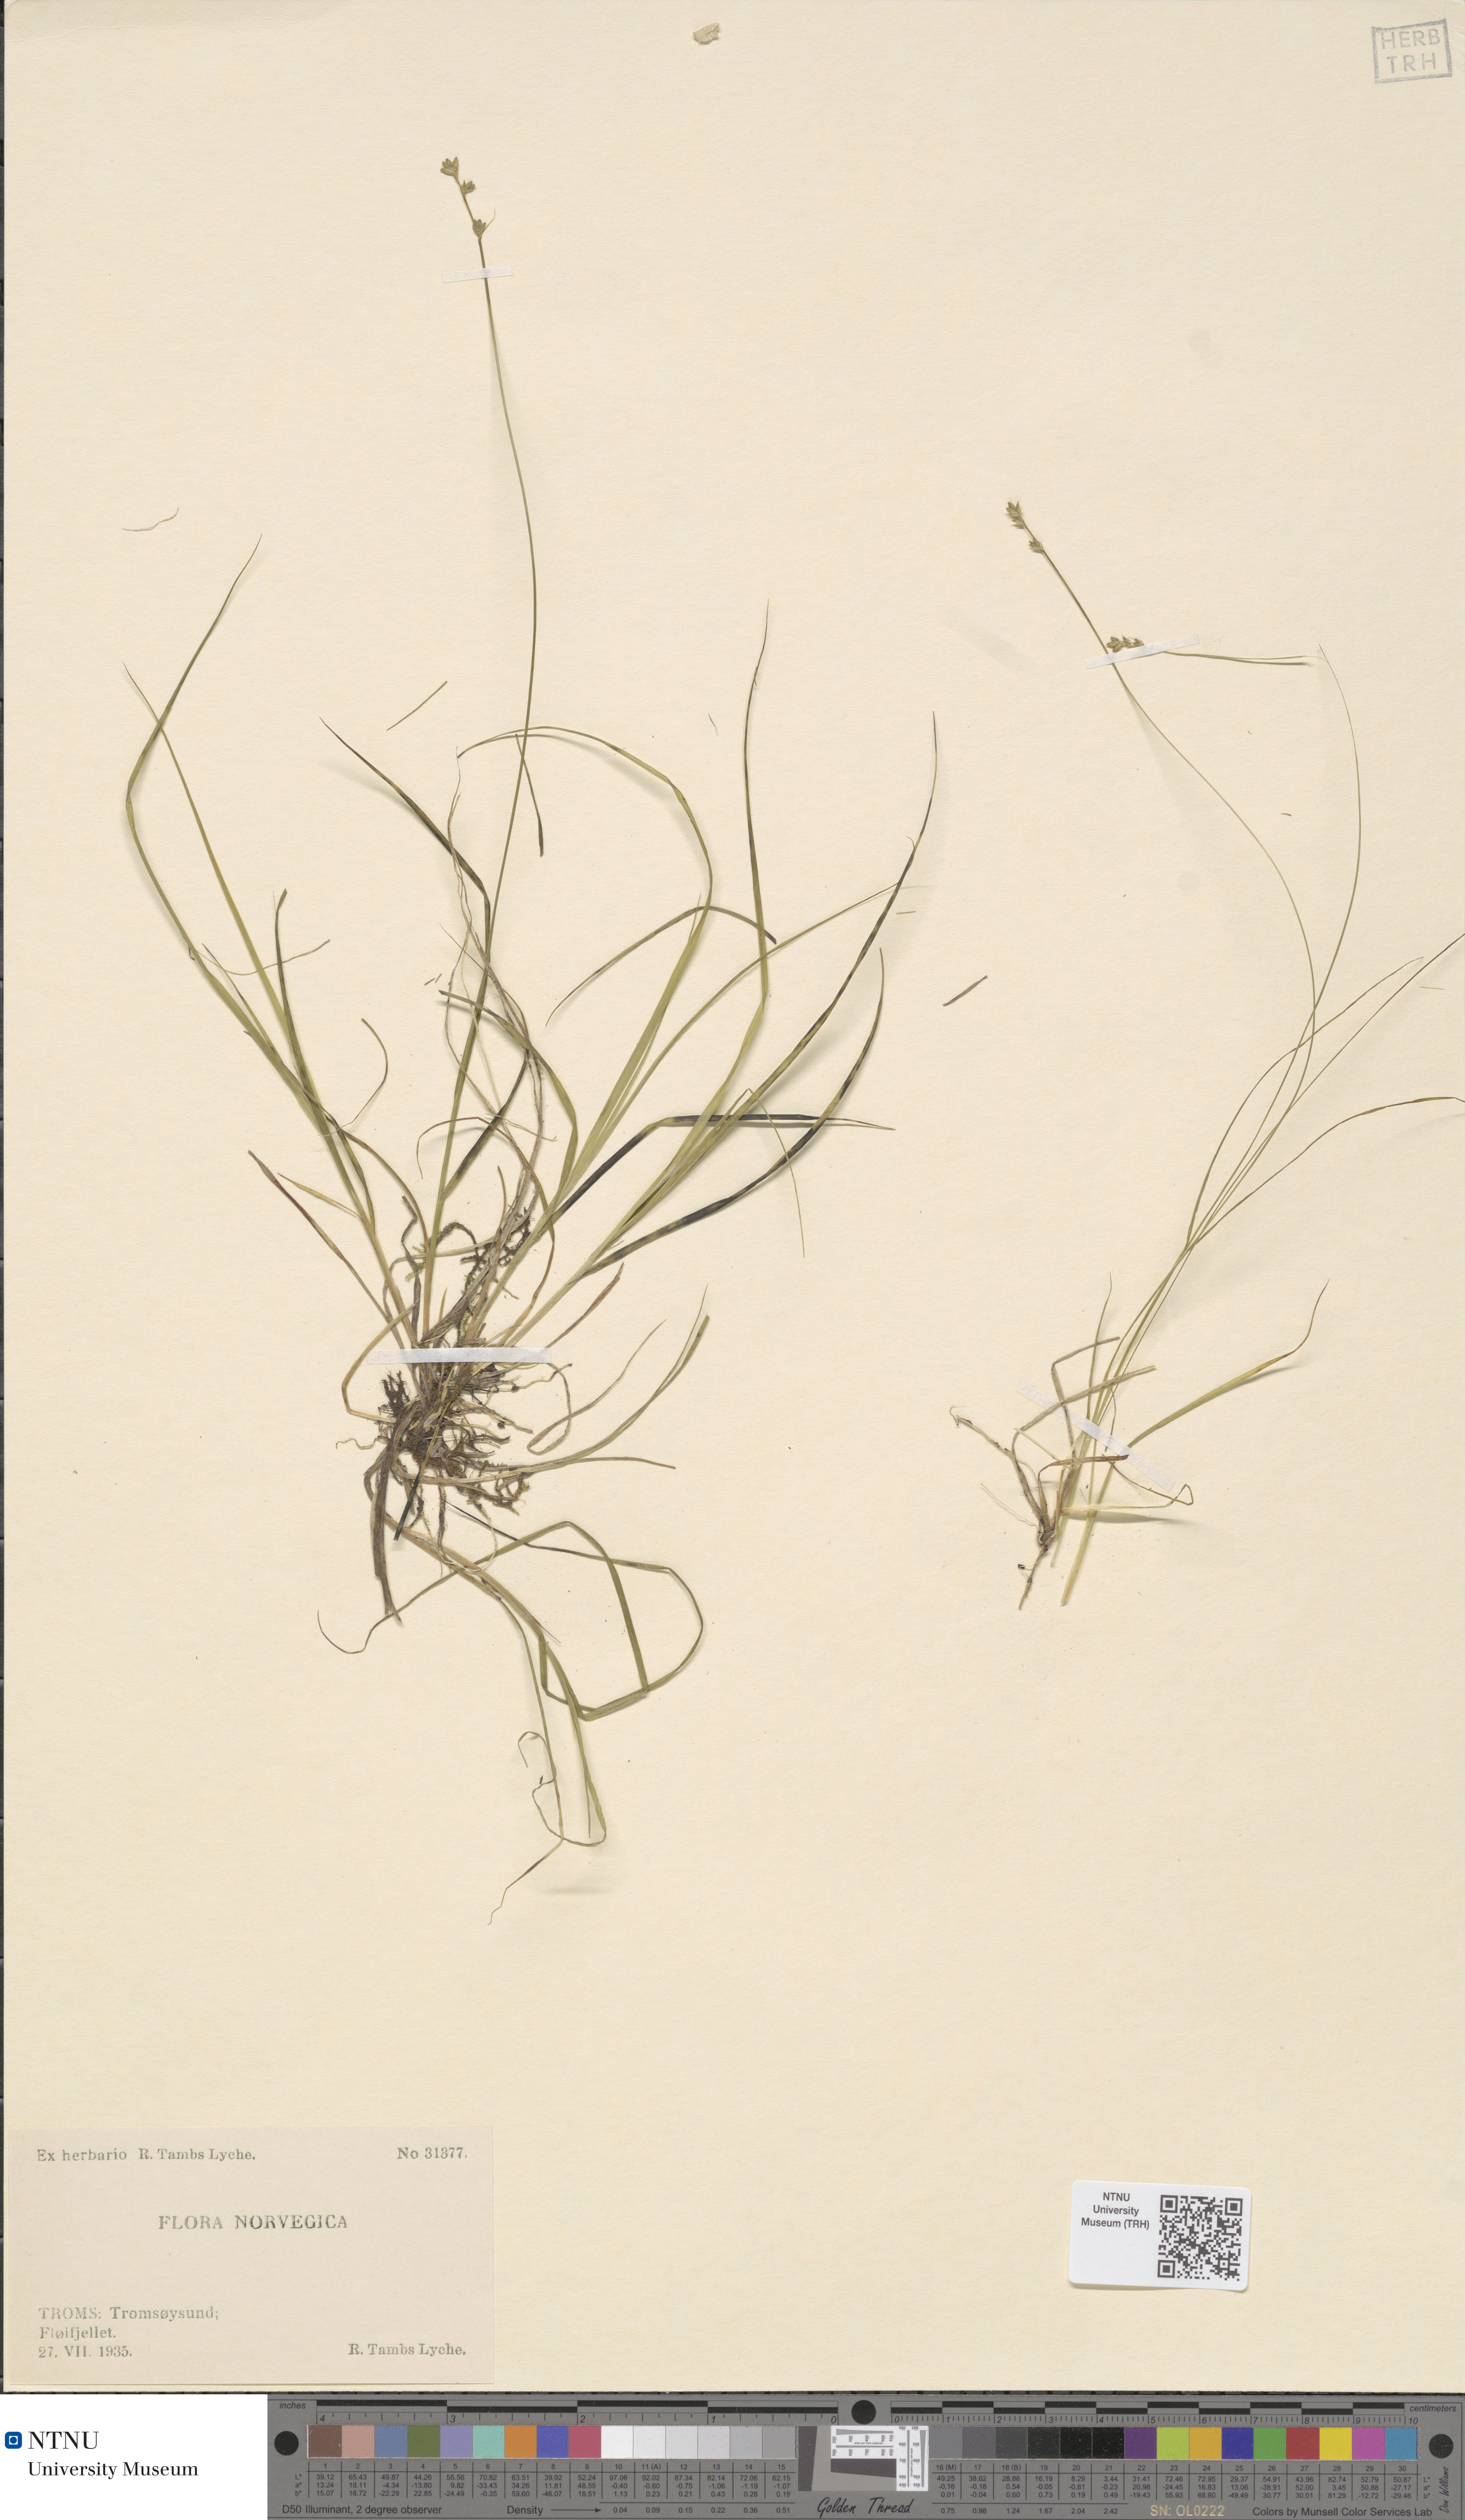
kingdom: Plantae
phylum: Tracheophyta
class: Liliopsida
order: Poales
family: Cyperaceae
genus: Carex
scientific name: Carex loliacea
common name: Ryegrass sedge
